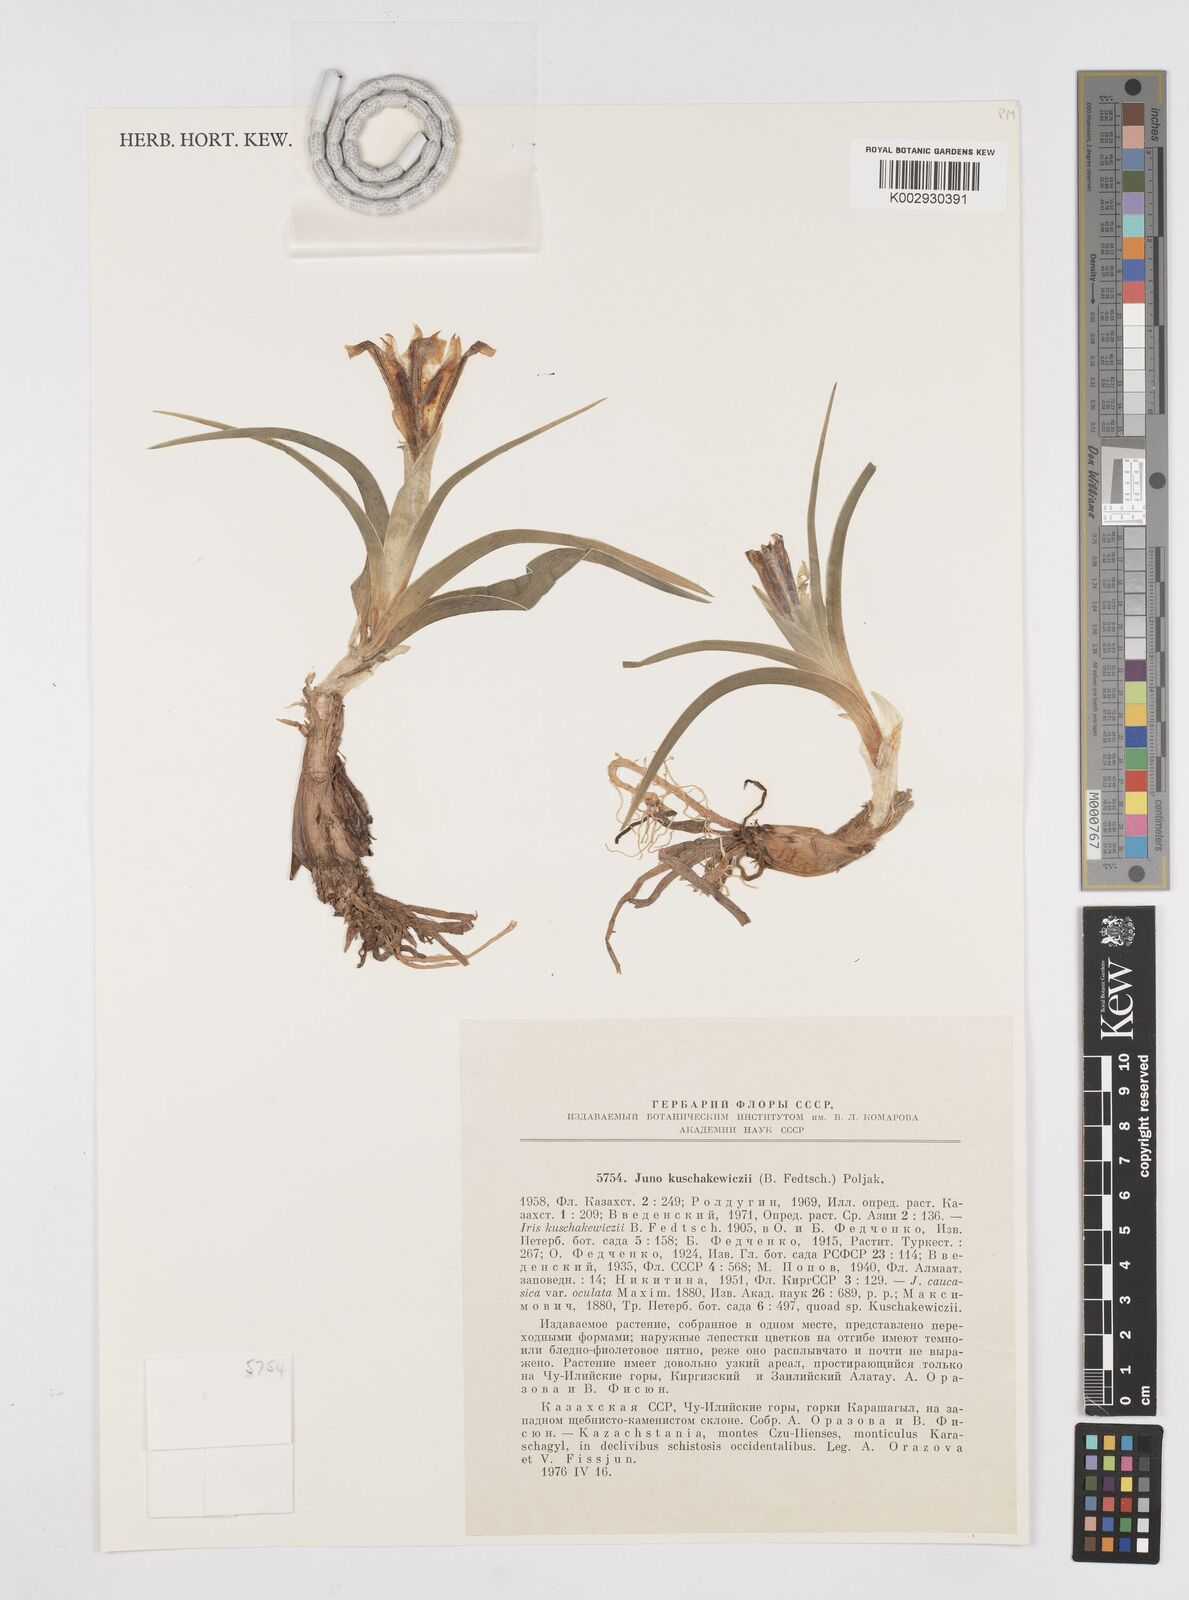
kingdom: Plantae
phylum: Tracheophyta
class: Liliopsida
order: Asparagales
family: Iridaceae
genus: Iris
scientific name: Iris kuschakewiczii
